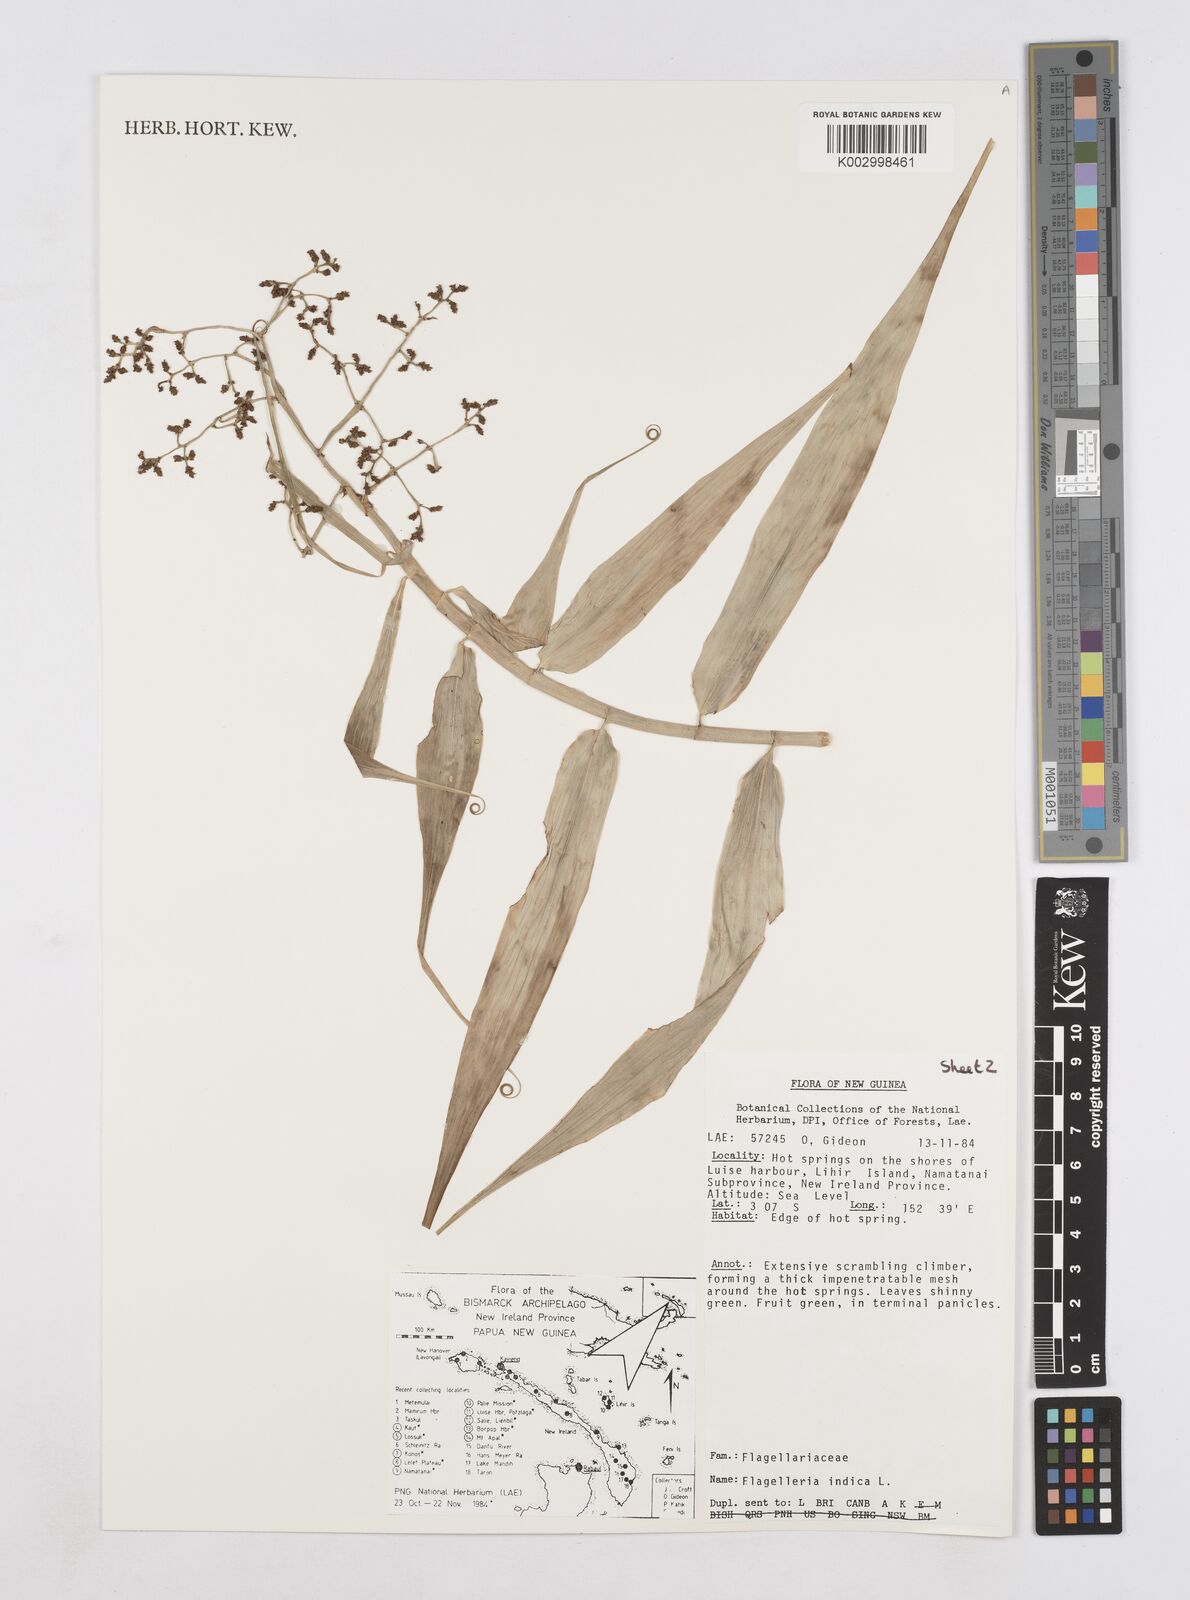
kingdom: Plantae
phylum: Tracheophyta
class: Liliopsida
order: Poales
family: Flagellariaceae
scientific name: Flagellariaceae
